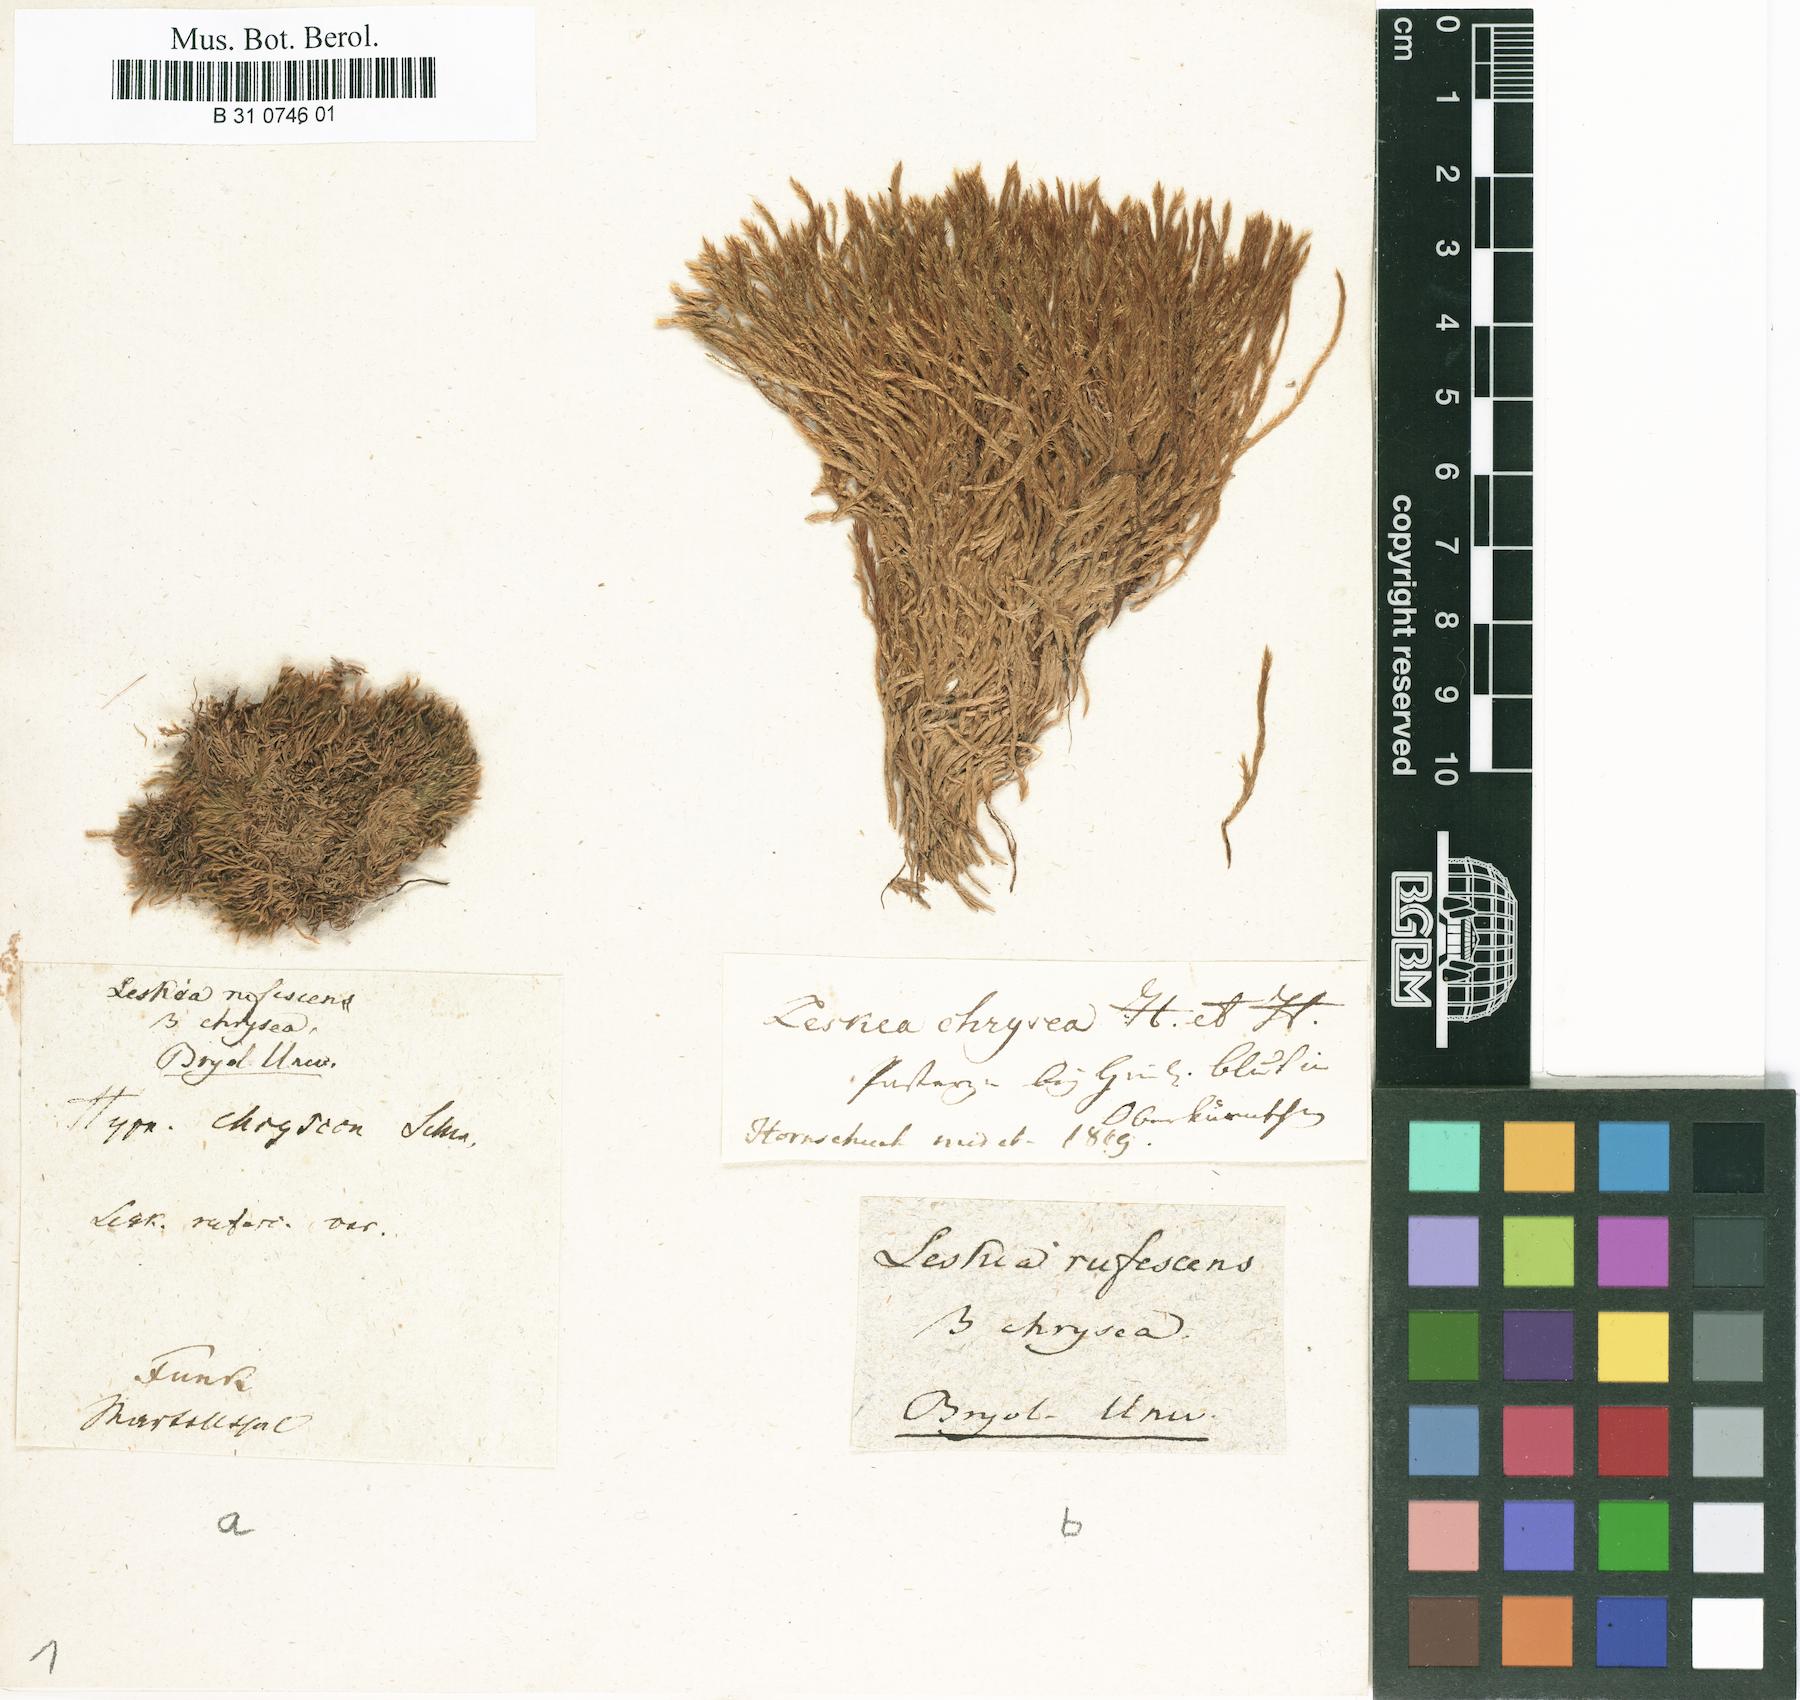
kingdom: Plantae
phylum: Bryophyta
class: Bryopsida
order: Hypnales
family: Plagiotheciaceae
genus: Orthothecium
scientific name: Orthothecium rufescens
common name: Red leskea
